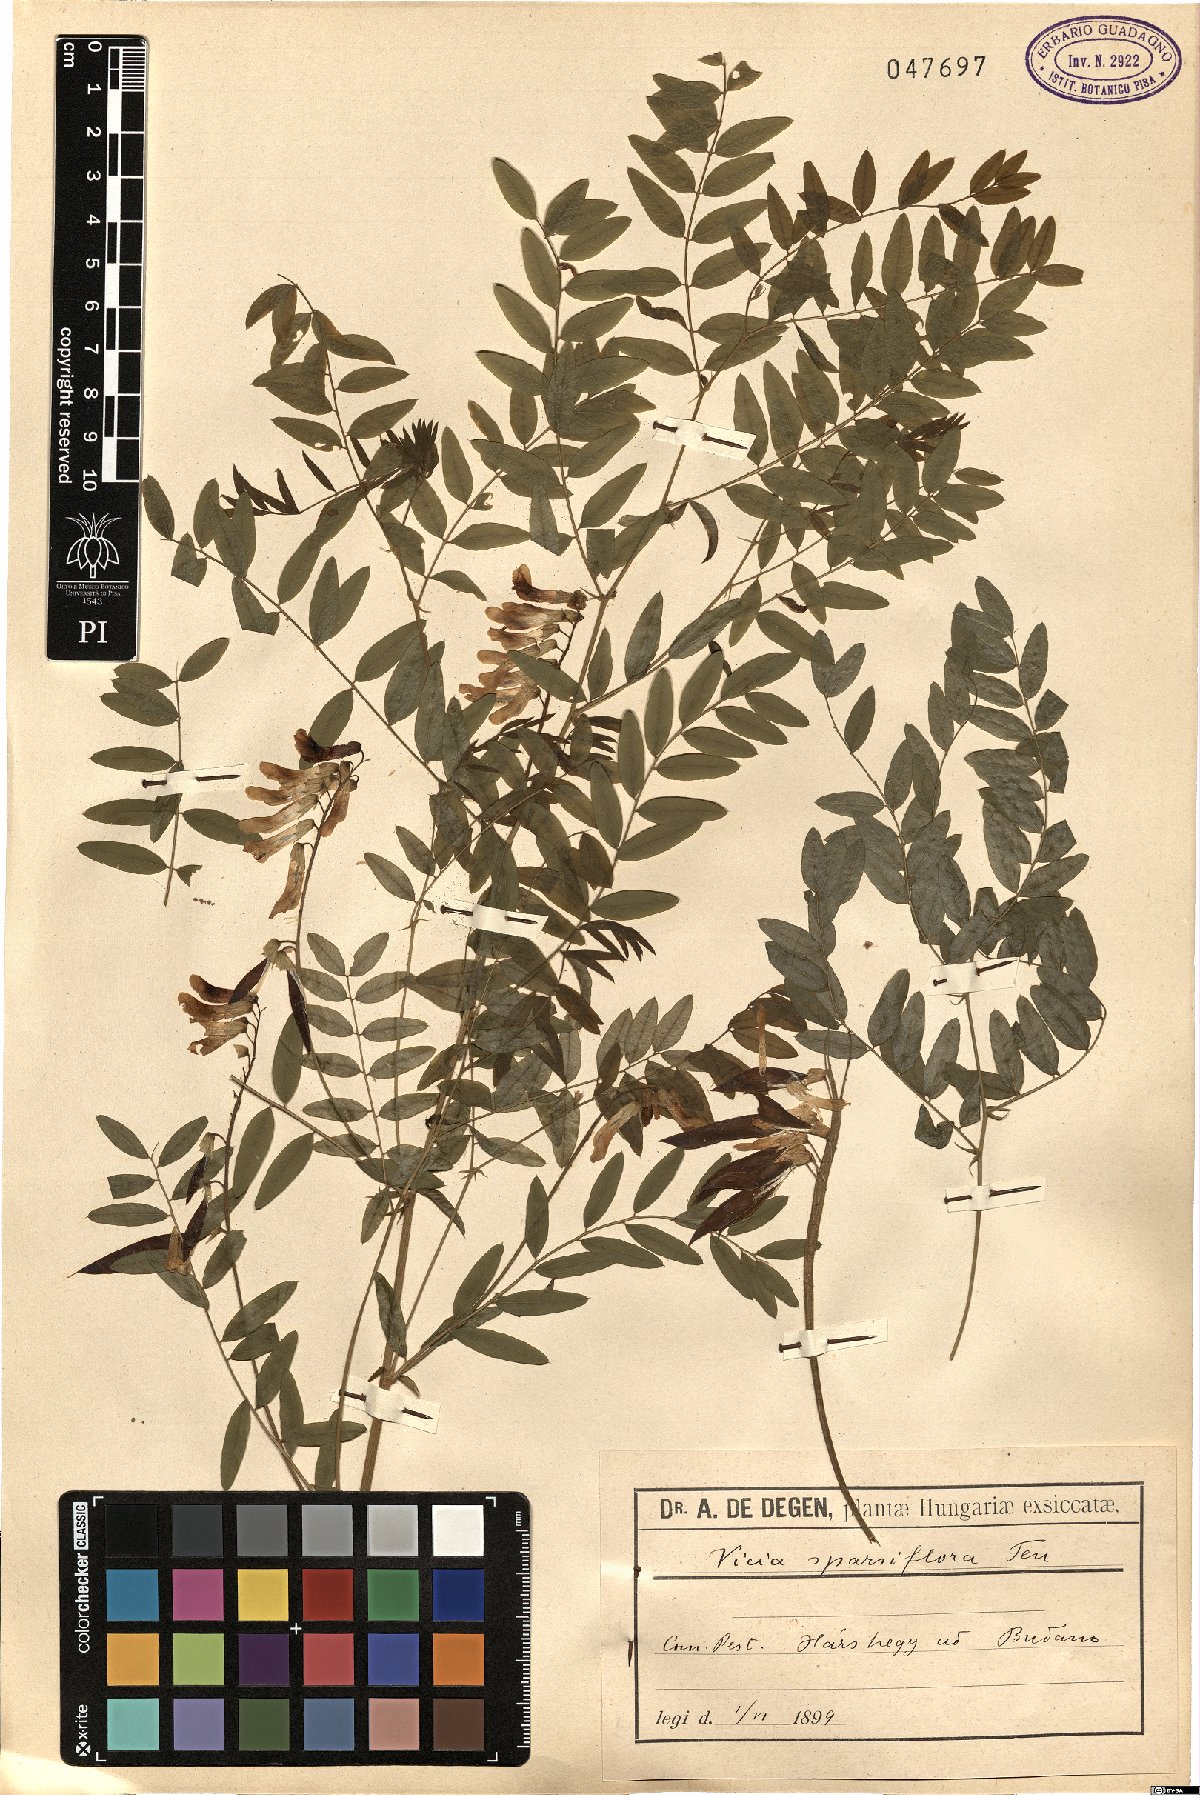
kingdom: Plantae
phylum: Tracheophyta
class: Magnoliopsida
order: Fabales
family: Fabaceae
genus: Vicia
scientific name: Vicia sparsiflora
